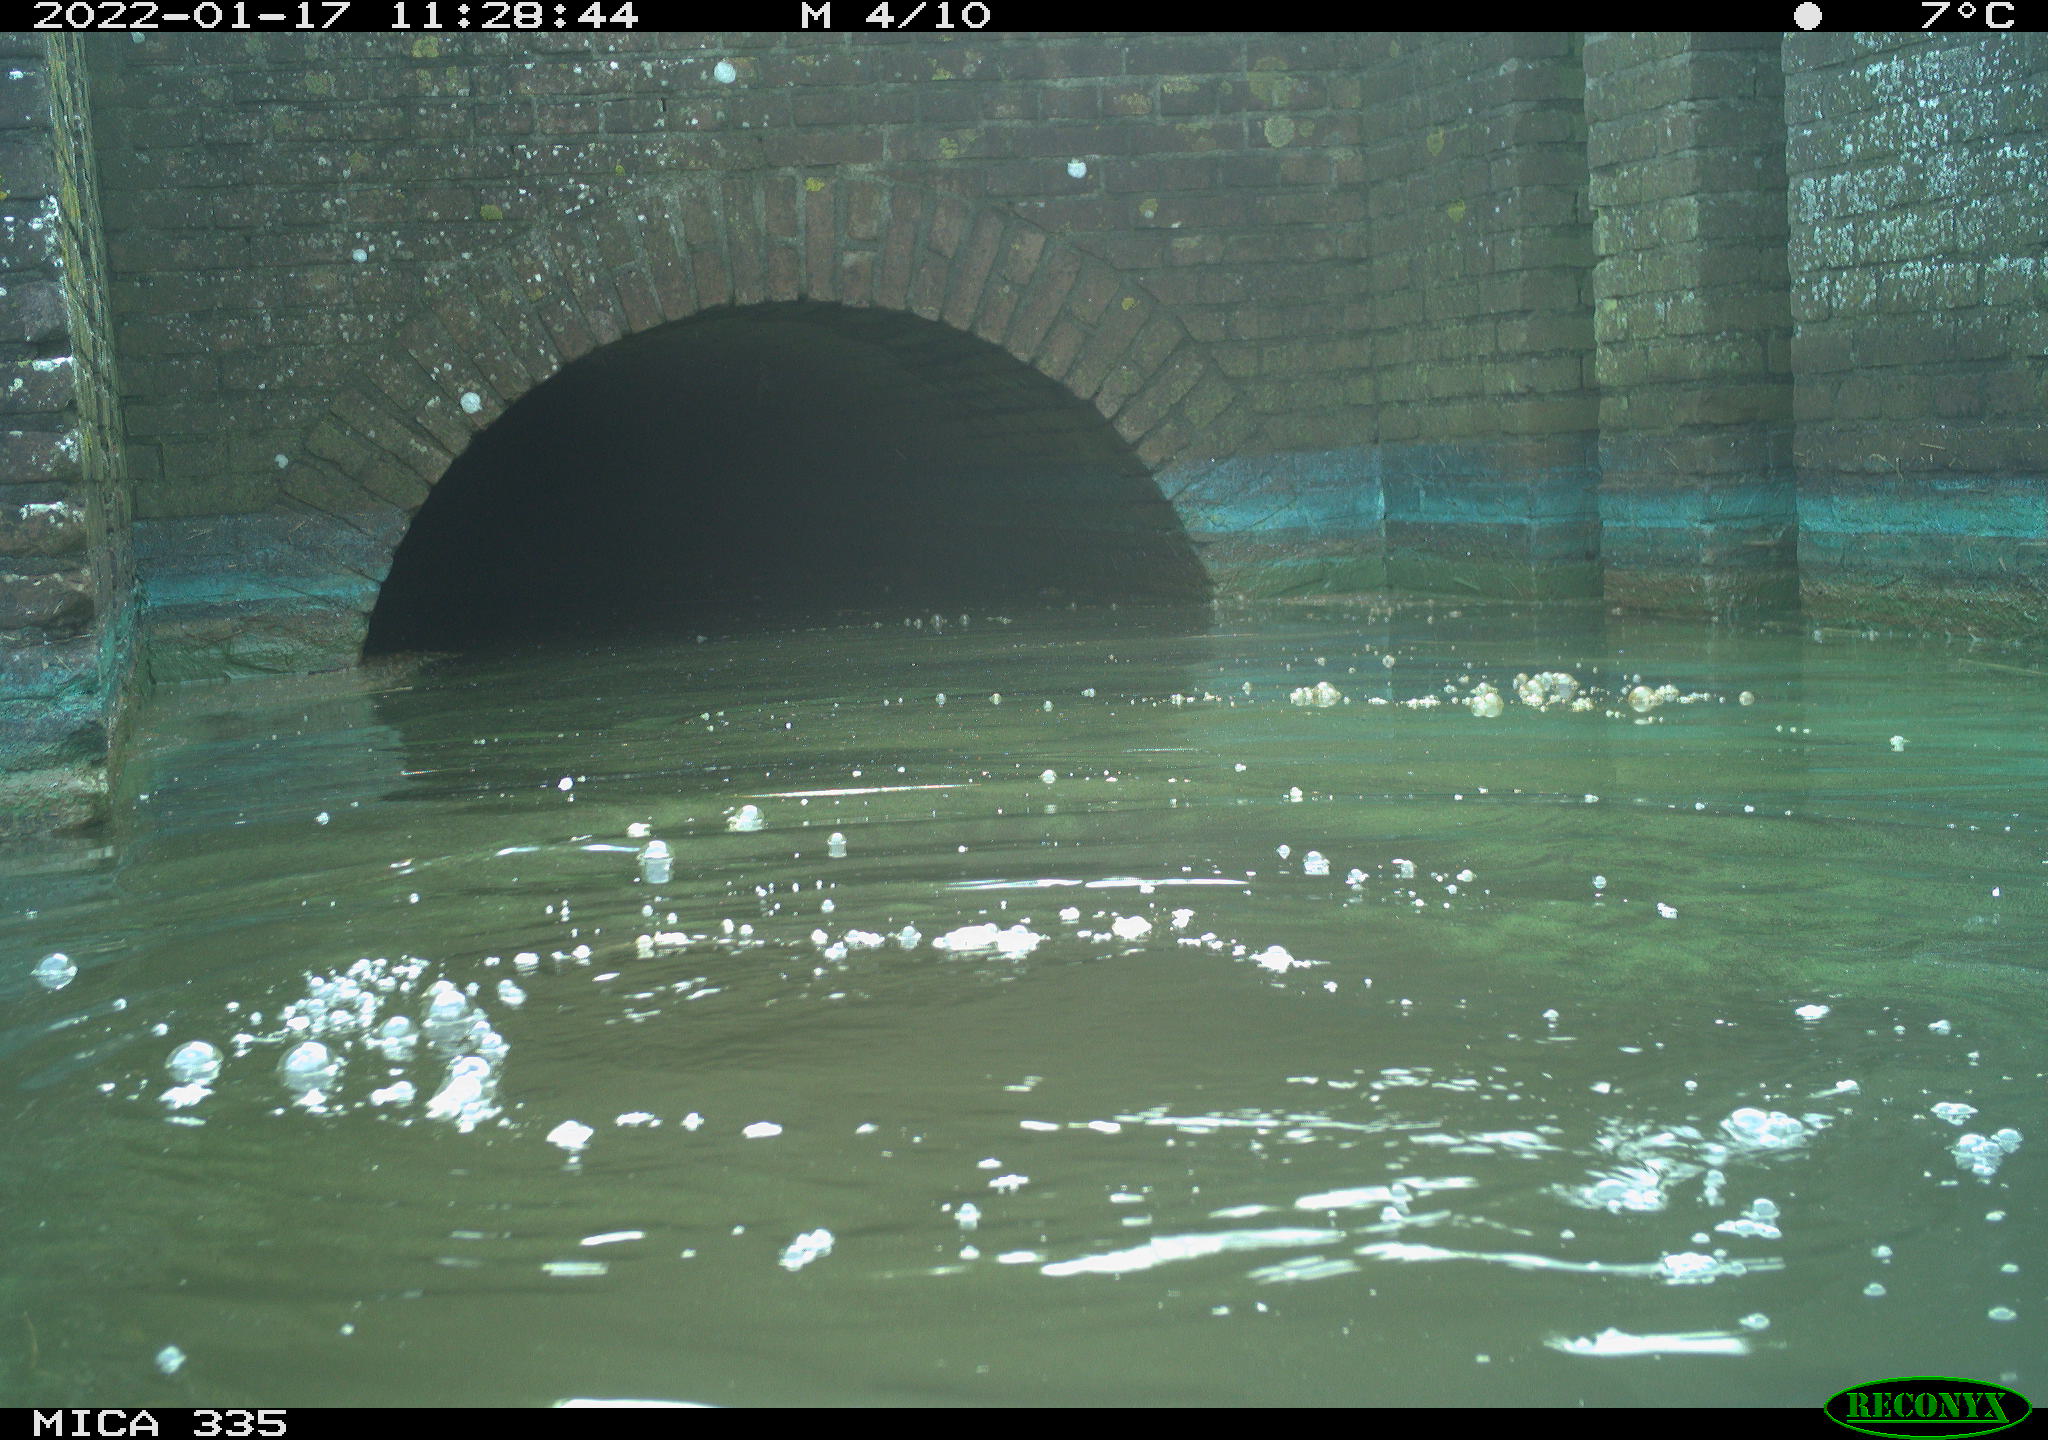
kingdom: Animalia
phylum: Chordata
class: Aves
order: Suliformes
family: Phalacrocoracidae
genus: Phalacrocorax
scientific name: Phalacrocorax carbo
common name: Great cormorant
